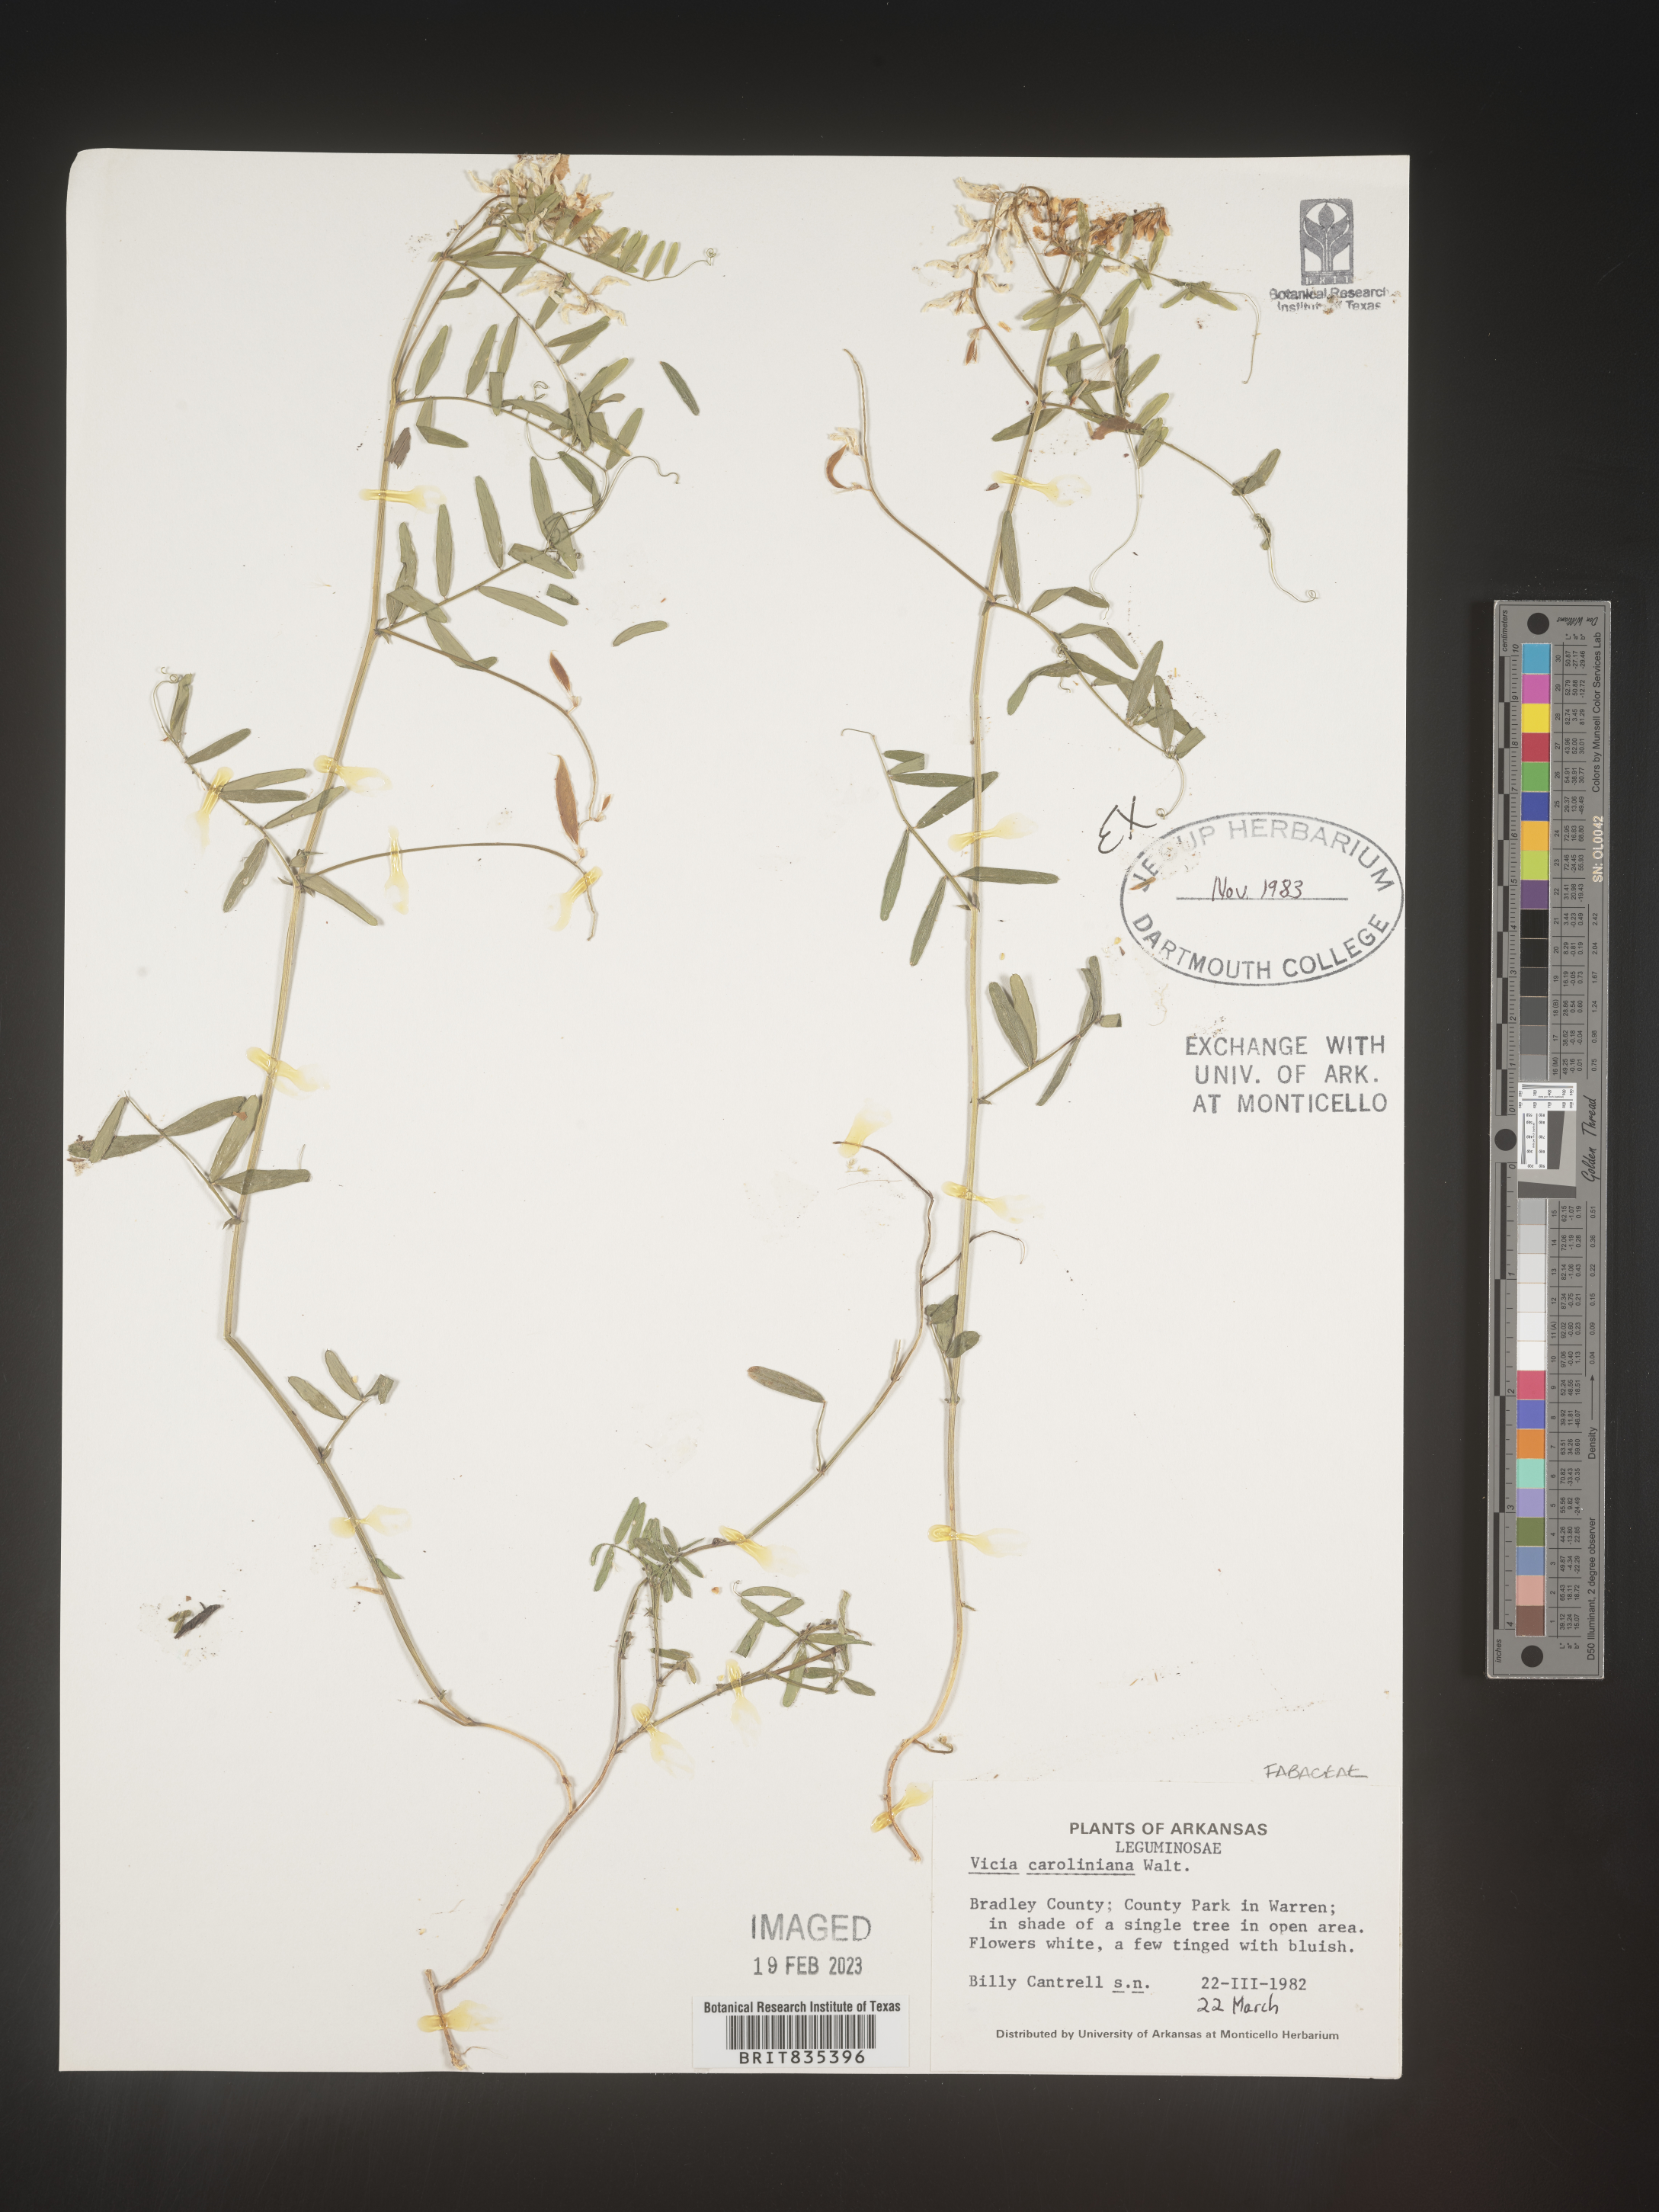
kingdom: Plantae
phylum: Tracheophyta
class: Magnoliopsida
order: Fabales
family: Fabaceae
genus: Vicia
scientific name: Vicia caroliniana
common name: Carolina vetch
